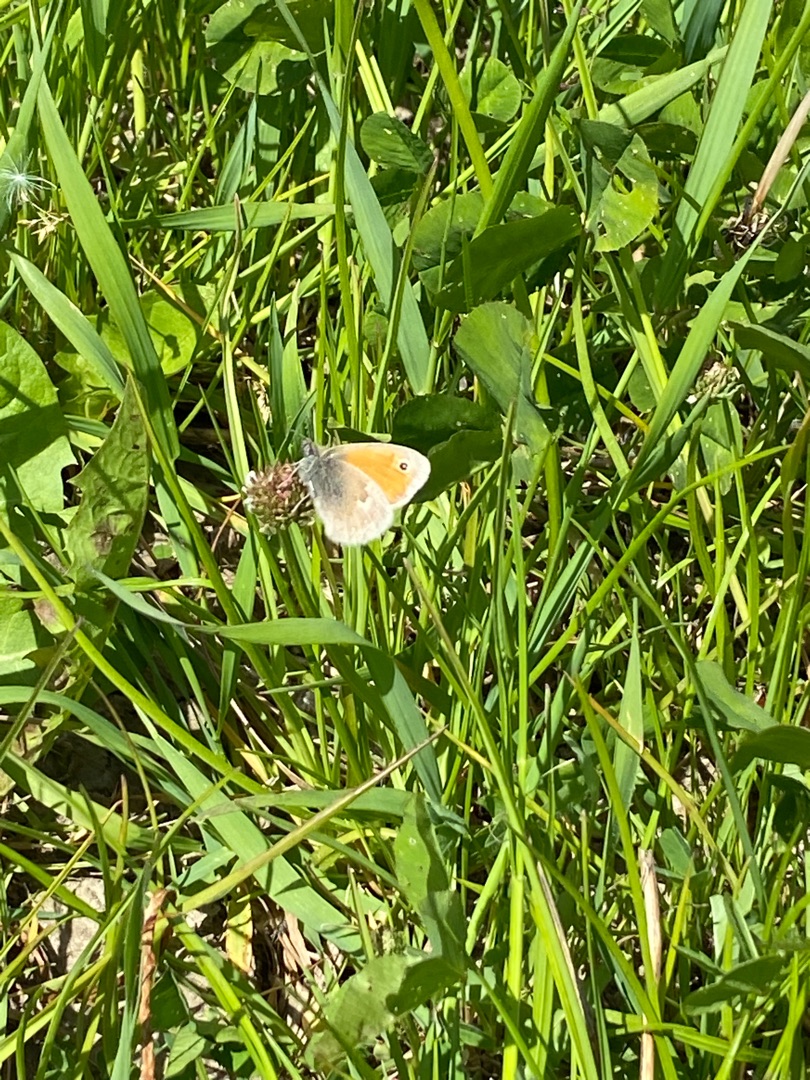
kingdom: Animalia
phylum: Arthropoda
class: Insecta
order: Lepidoptera
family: Nymphalidae
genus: Coenonympha
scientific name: Coenonympha pamphilus
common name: Okkergul randøje
